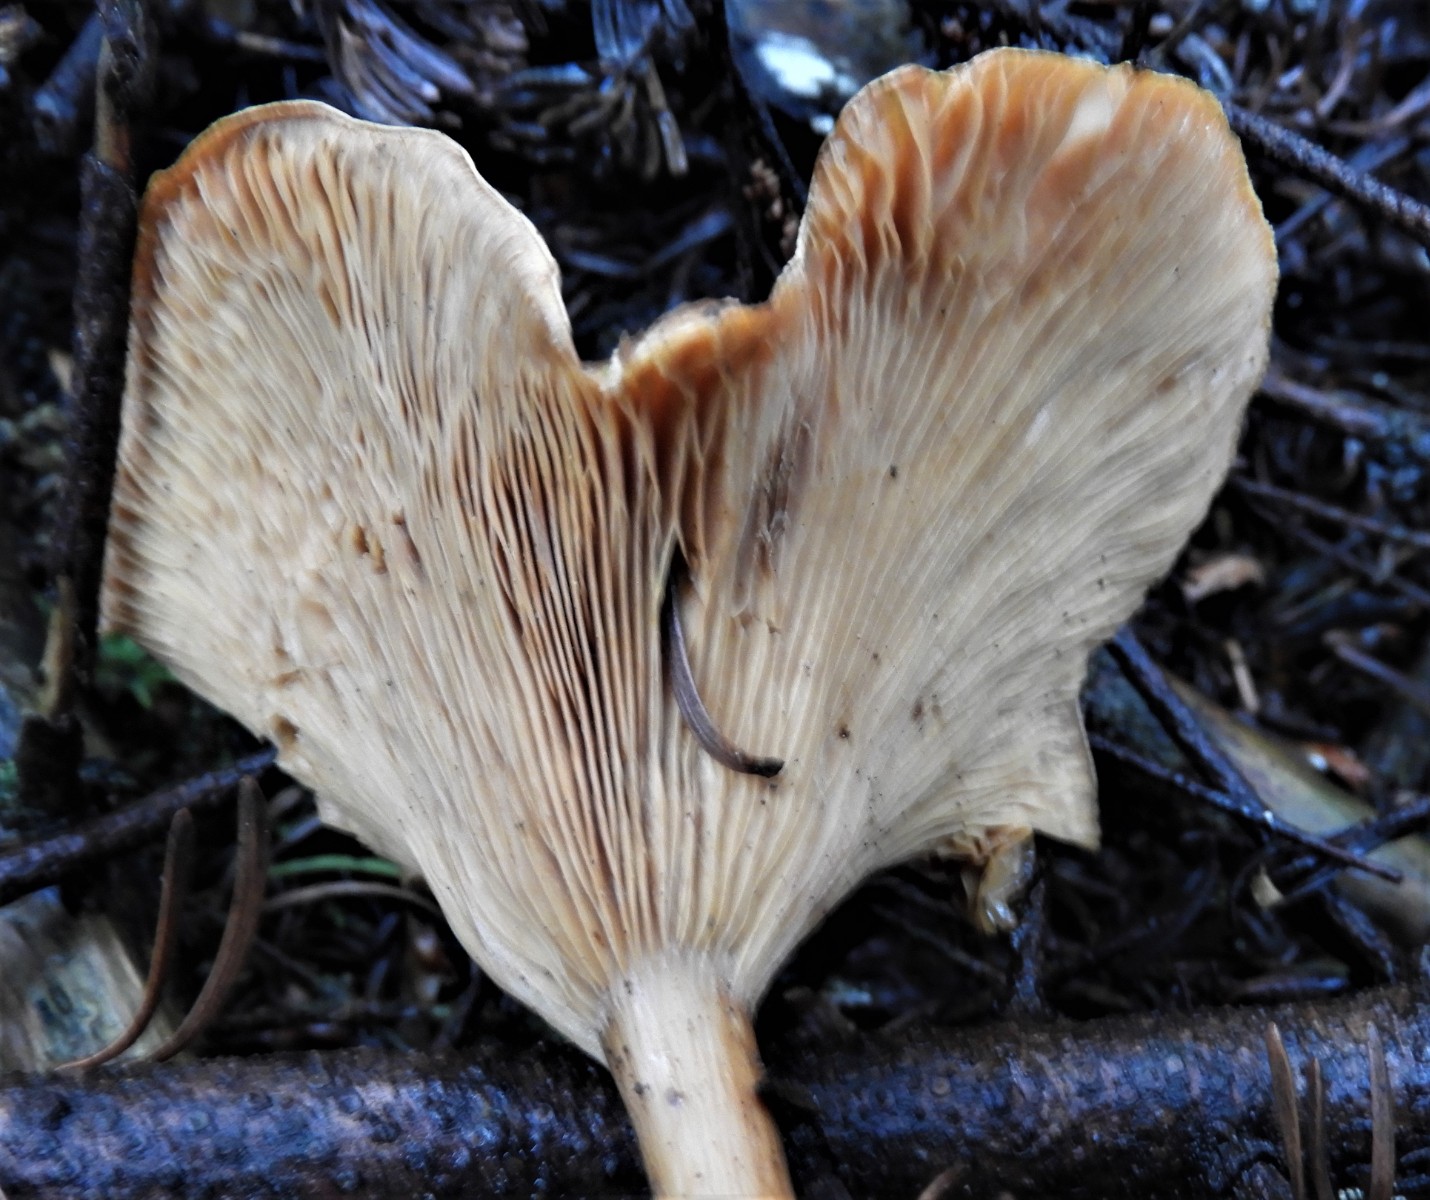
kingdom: Fungi
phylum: Basidiomycota
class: Agaricomycetes
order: Agaricales
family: Tricholomataceae
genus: Paralepista
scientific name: Paralepista flaccida
